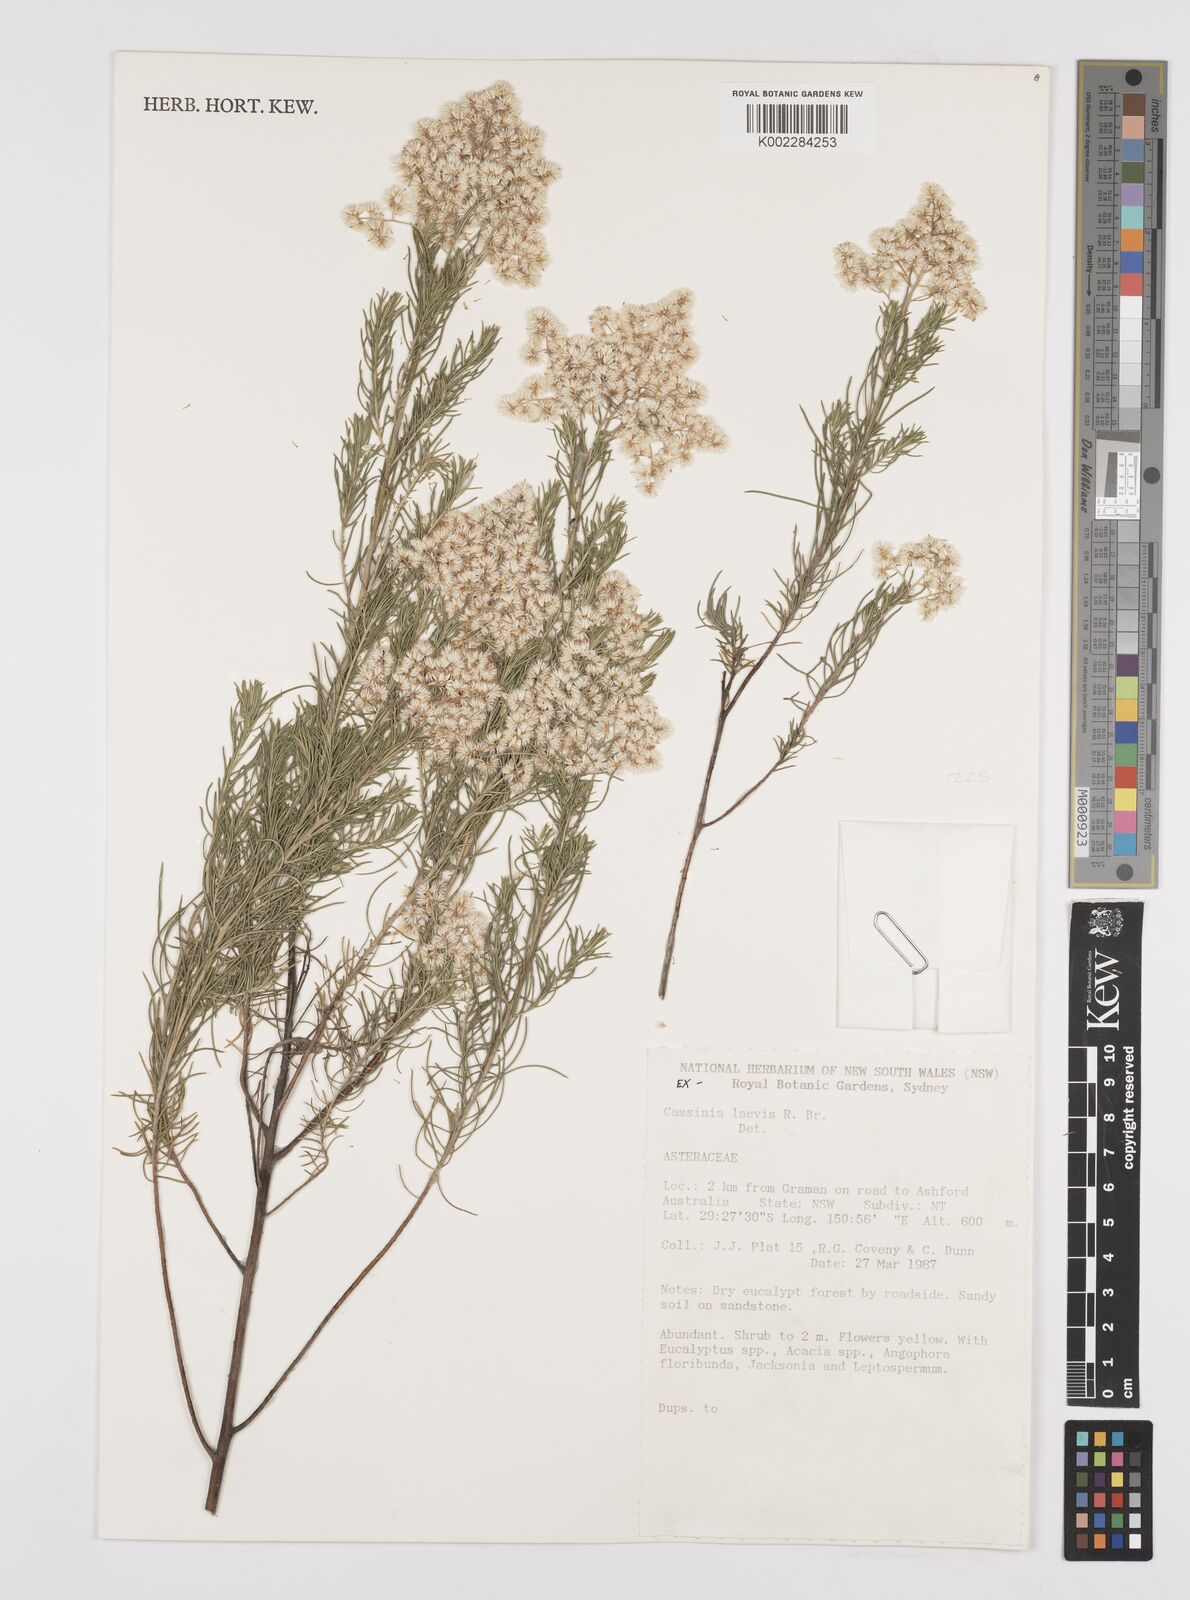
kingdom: Plantae
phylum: Tracheophyta
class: Magnoliopsida
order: Asterales
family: Asteraceae
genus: Cassinia
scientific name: Cassinia laevis
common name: Coughbush
